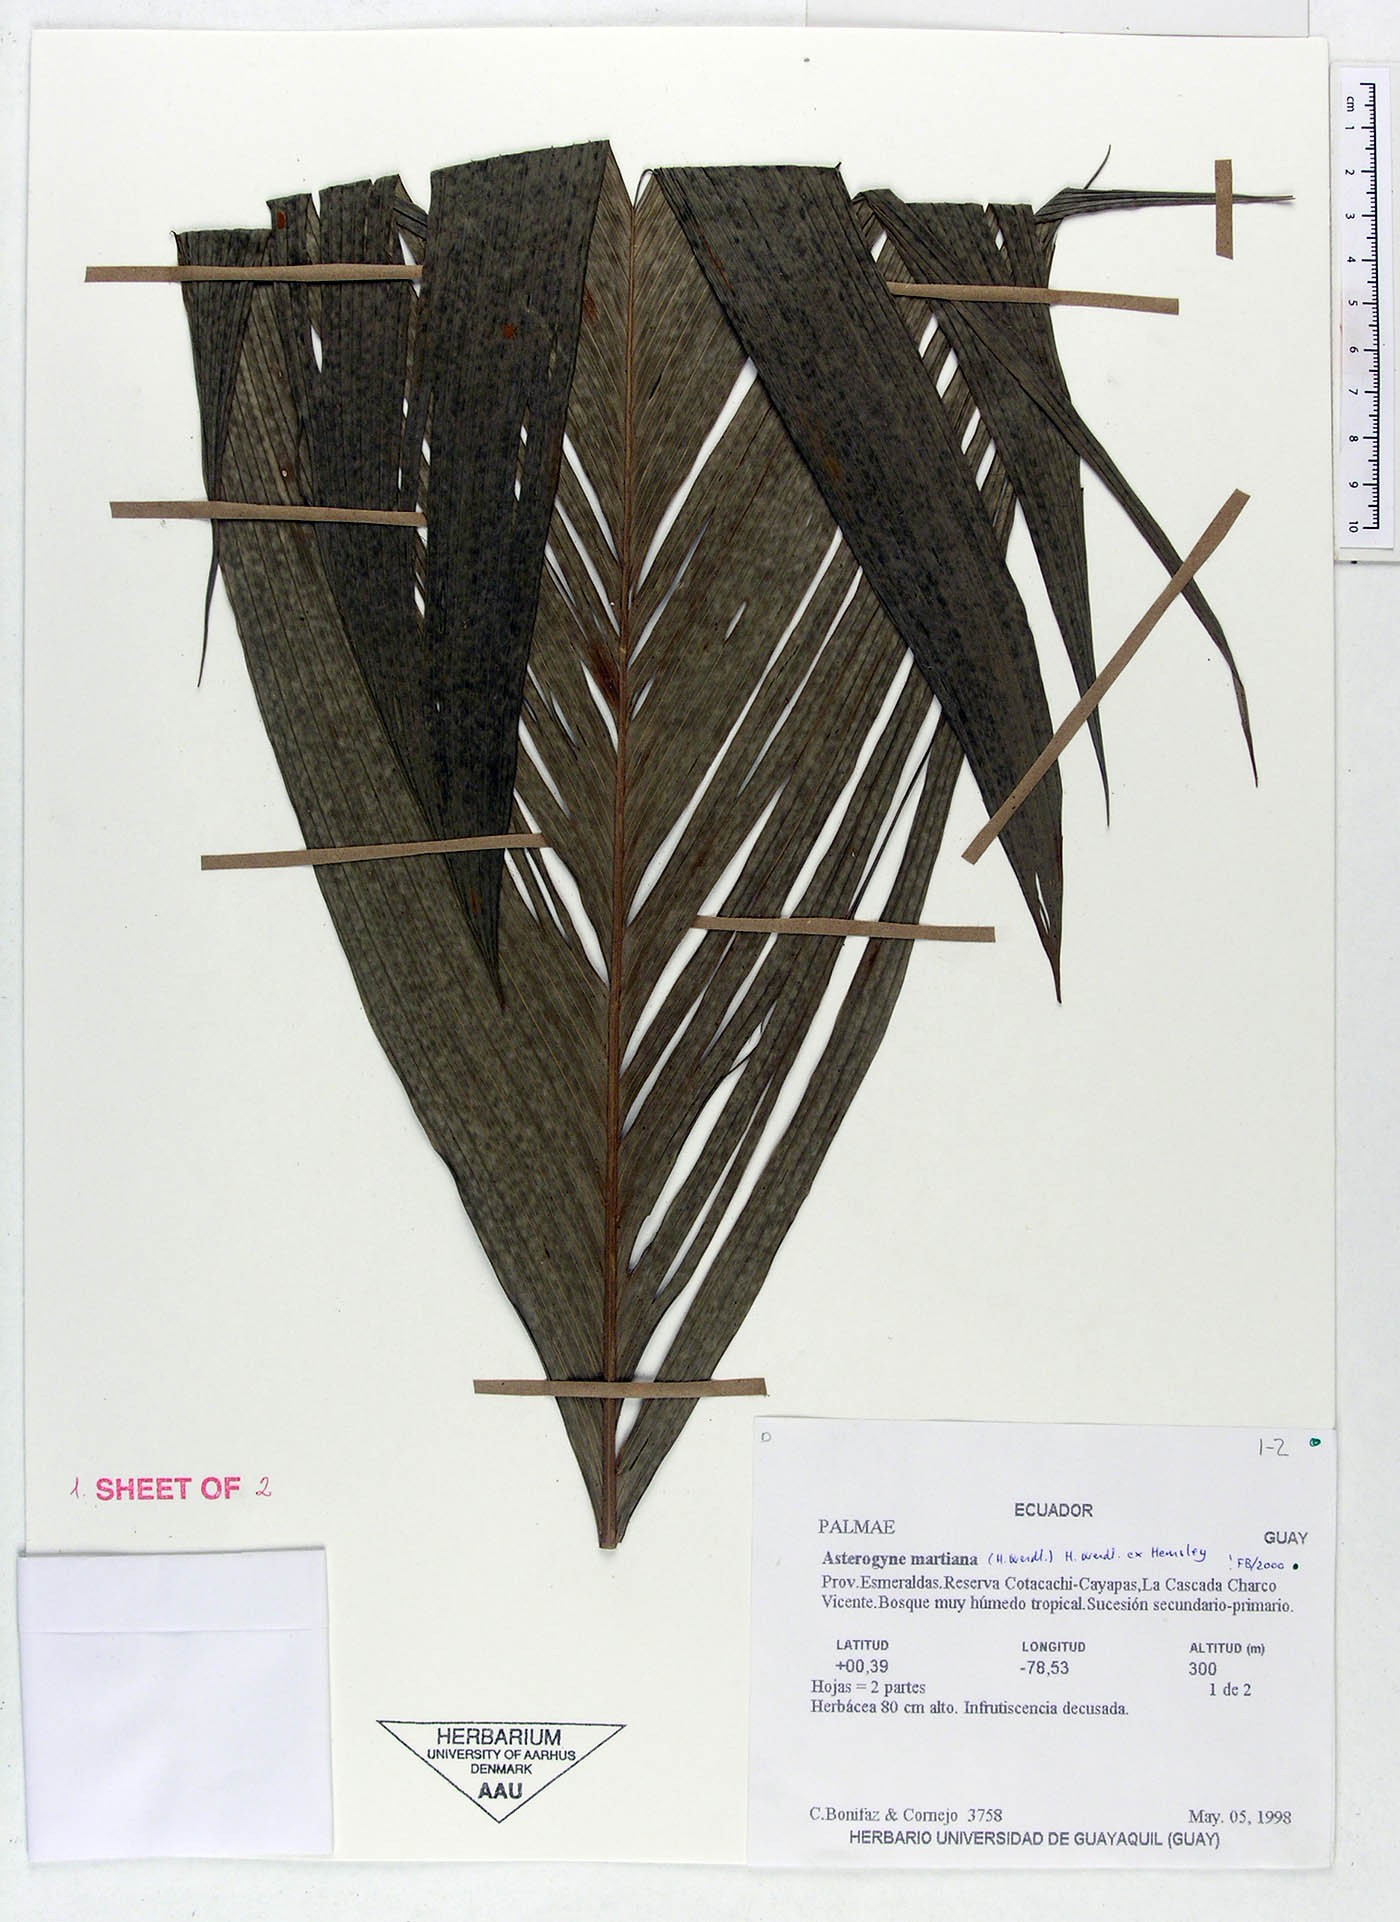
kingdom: Plantae
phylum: Tracheophyta
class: Liliopsida
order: Arecales
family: Arecaceae
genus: Asterogyne
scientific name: Asterogyne martiana
